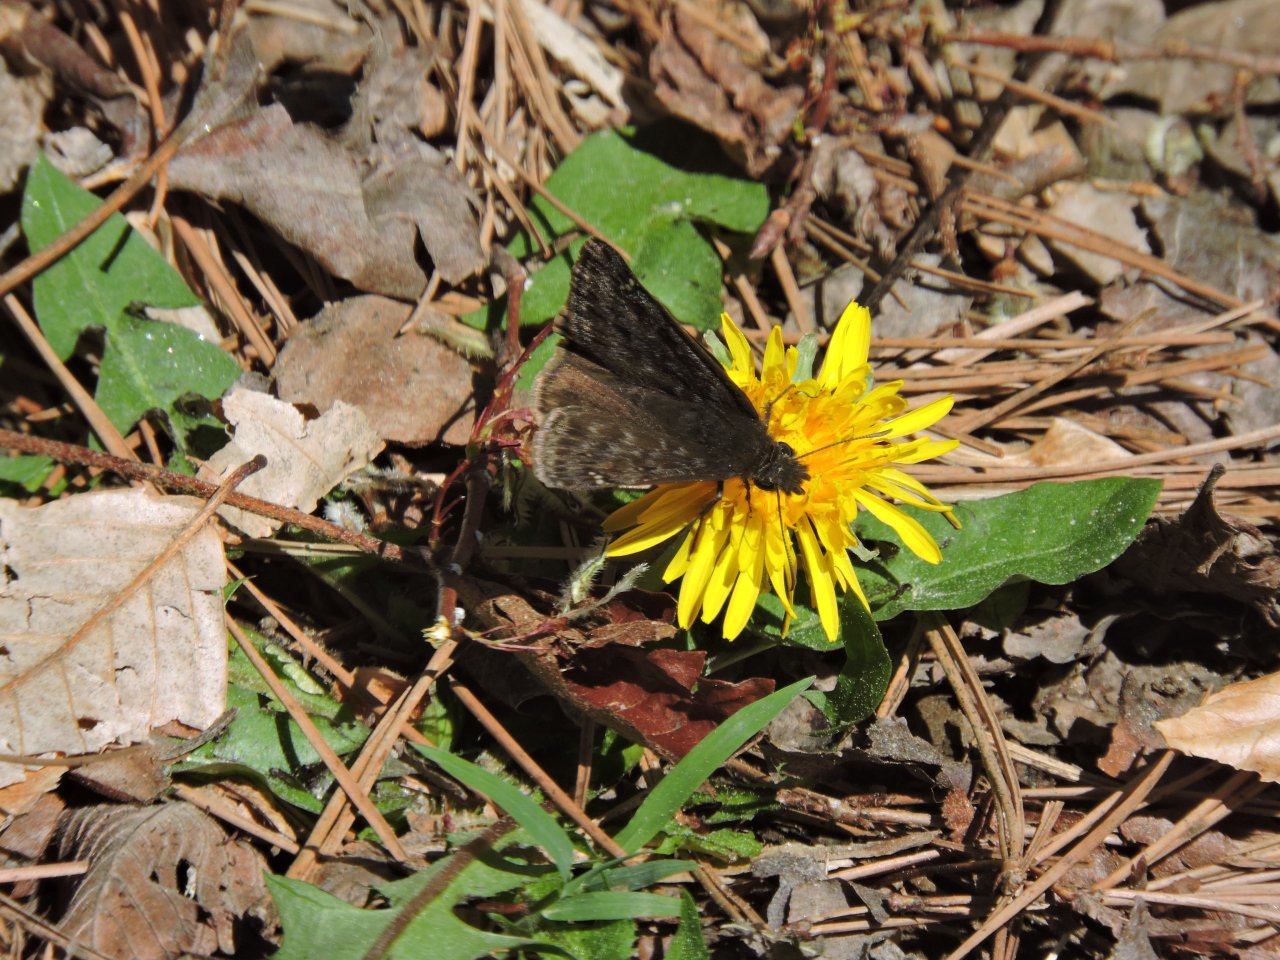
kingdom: Animalia
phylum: Arthropoda
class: Insecta
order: Lepidoptera
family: Hesperiidae
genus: Gesta
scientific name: Gesta
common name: Juvenal's Duskywing
